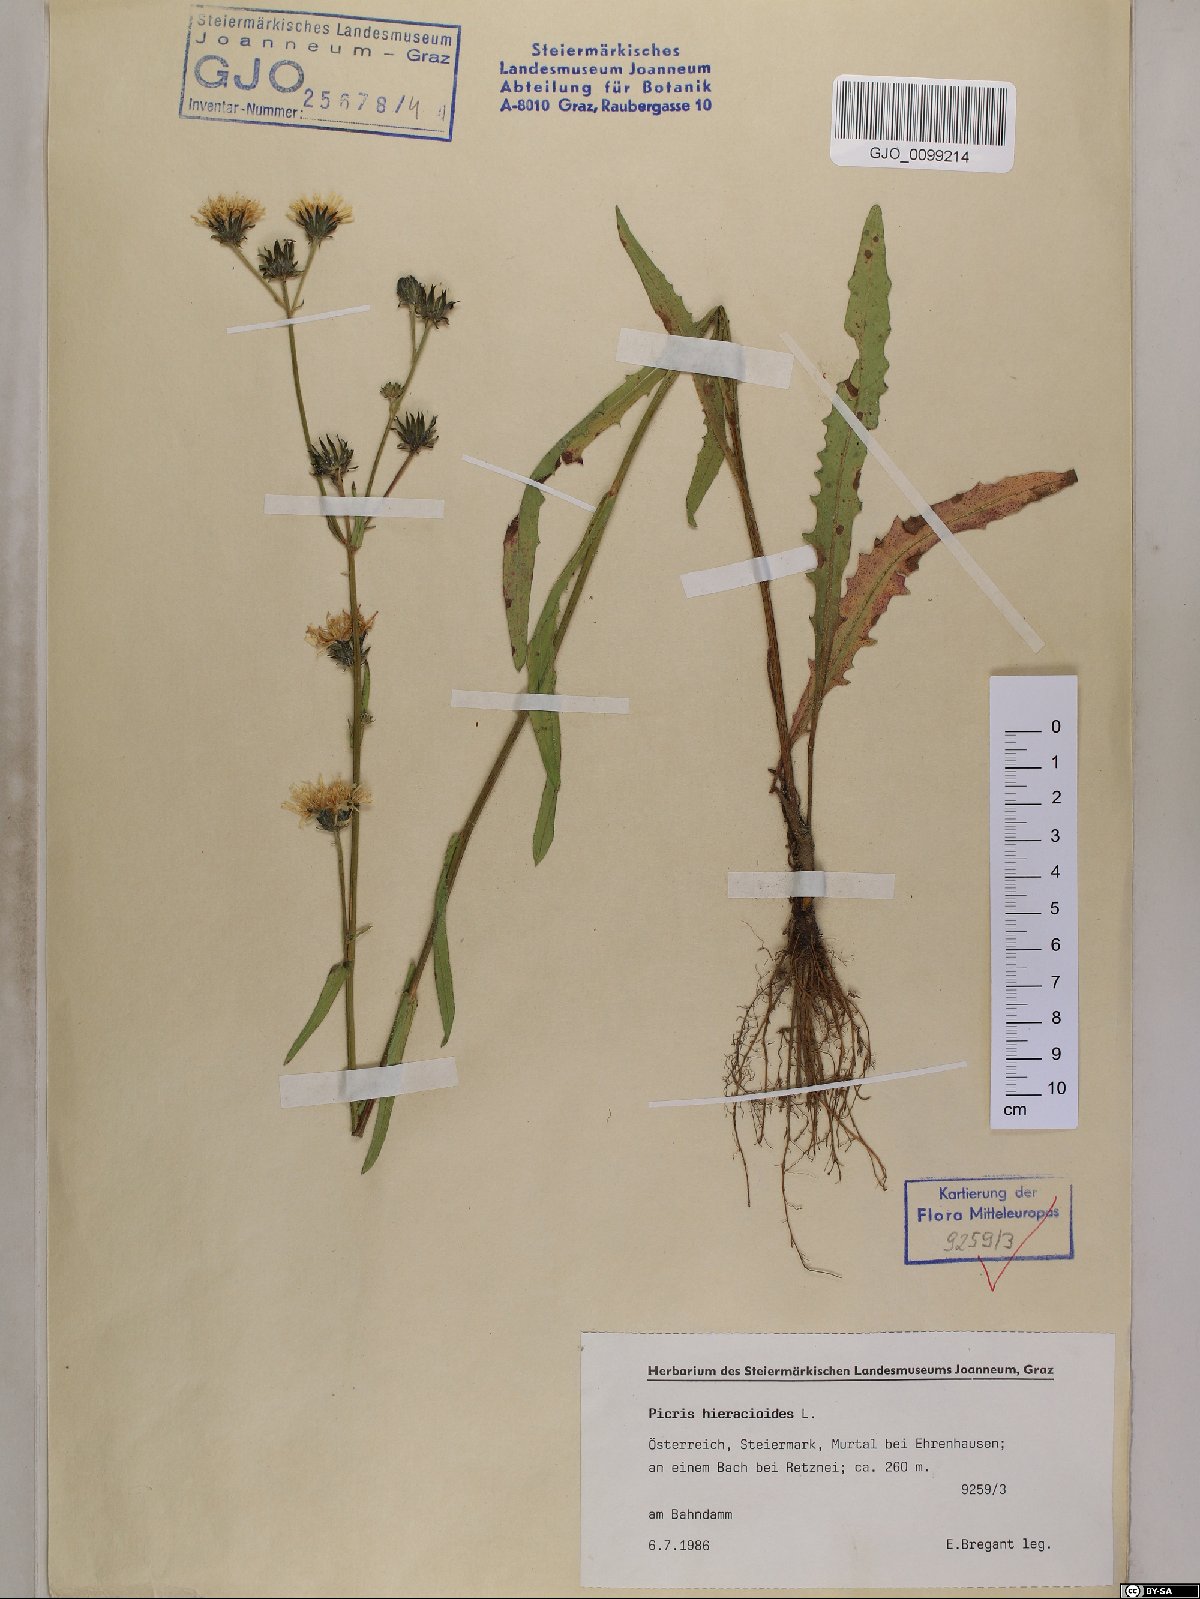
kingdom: Plantae
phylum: Tracheophyta
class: Magnoliopsida
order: Asterales
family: Asteraceae
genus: Picris
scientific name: Picris hieracioides
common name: Hawkweed oxtongue
